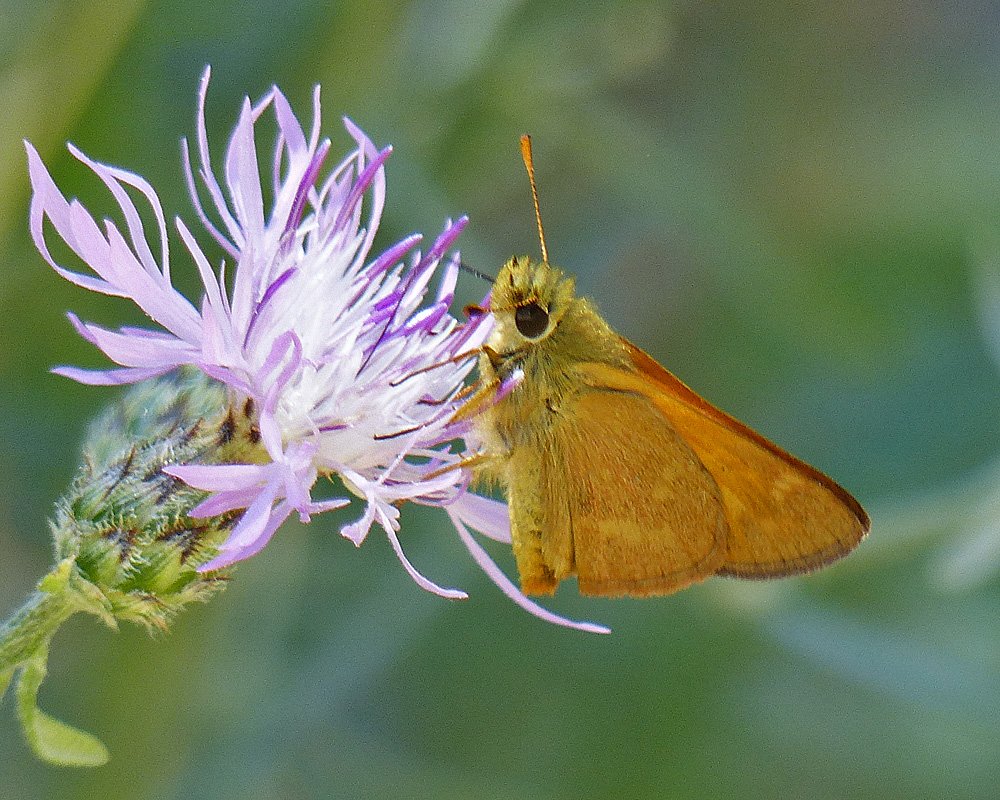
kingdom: Animalia
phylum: Arthropoda
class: Insecta
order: Lepidoptera
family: Hesperiidae
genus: Ochlodes
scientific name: Ochlodes sylvanoides
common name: Woodland Skipper
